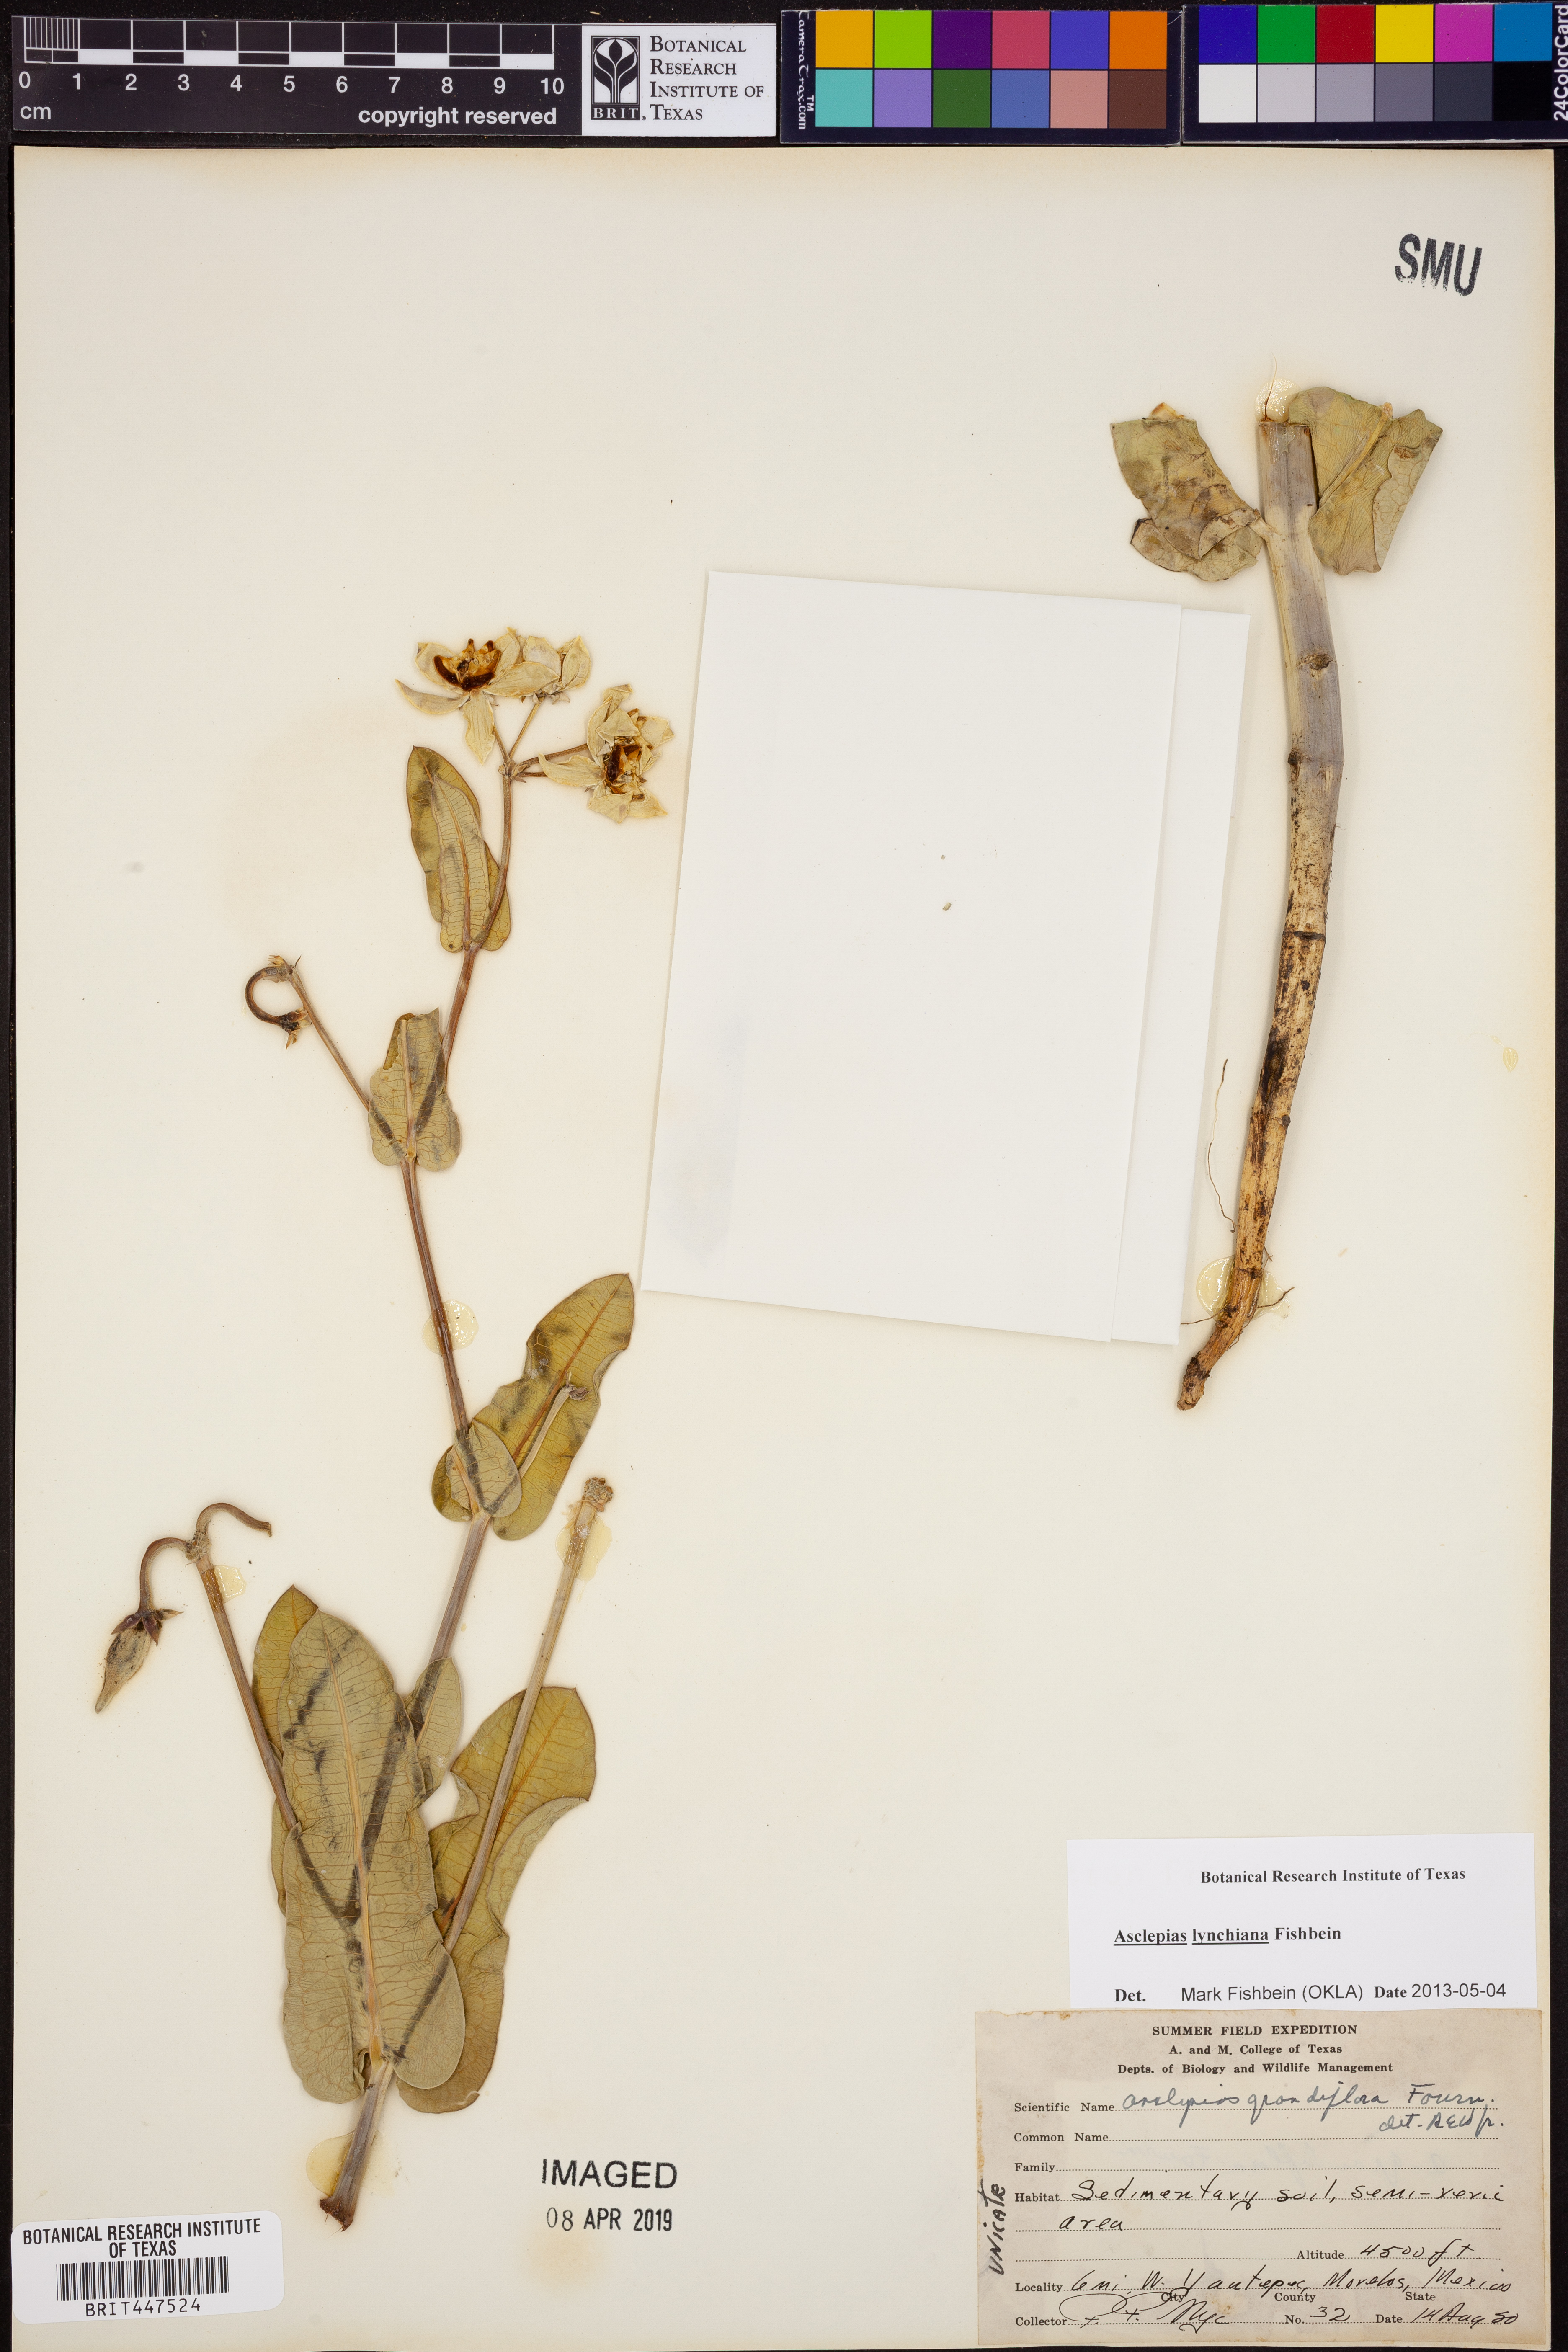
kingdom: Plantae
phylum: Tracheophyta
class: Magnoliopsida
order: Gentianales
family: Apocynaceae
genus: Asclepias
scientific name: Asclepias lynchiana
